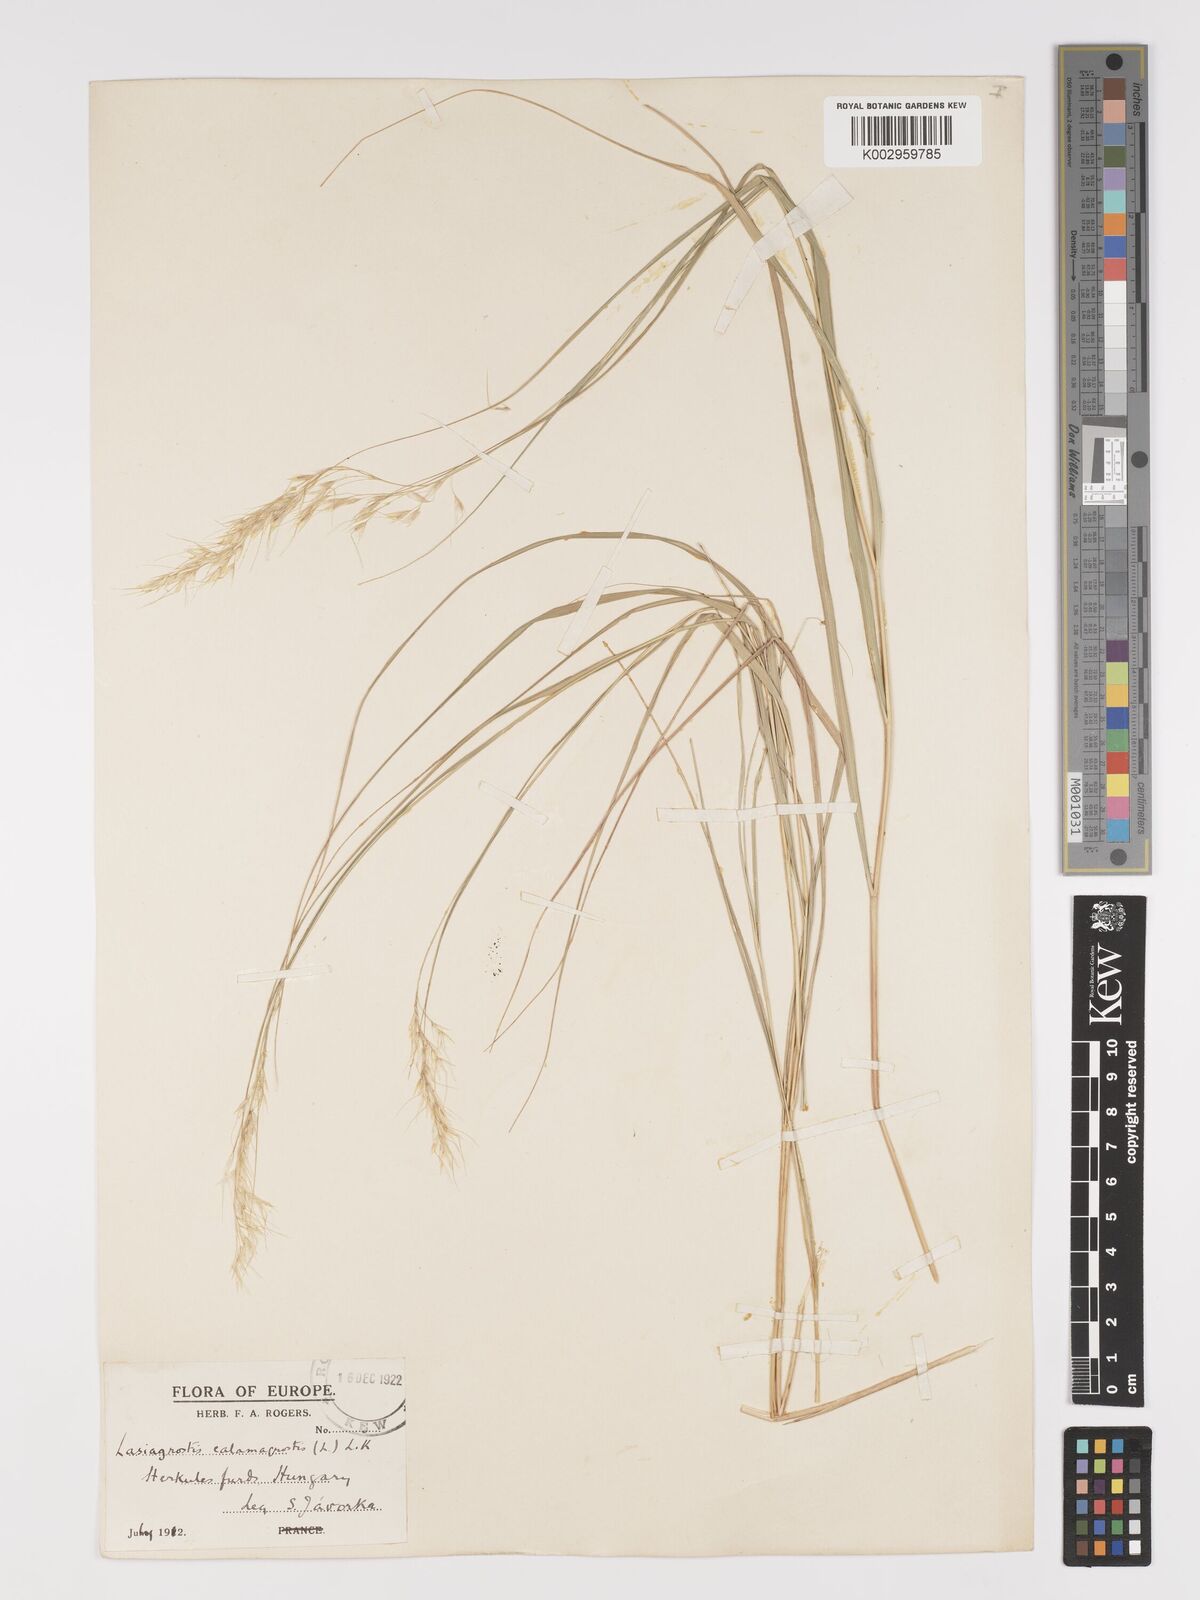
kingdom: Plantae
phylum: Tracheophyta
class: Liliopsida
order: Poales
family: Poaceae
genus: Achnatherum
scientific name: Achnatherum calamagrostis
